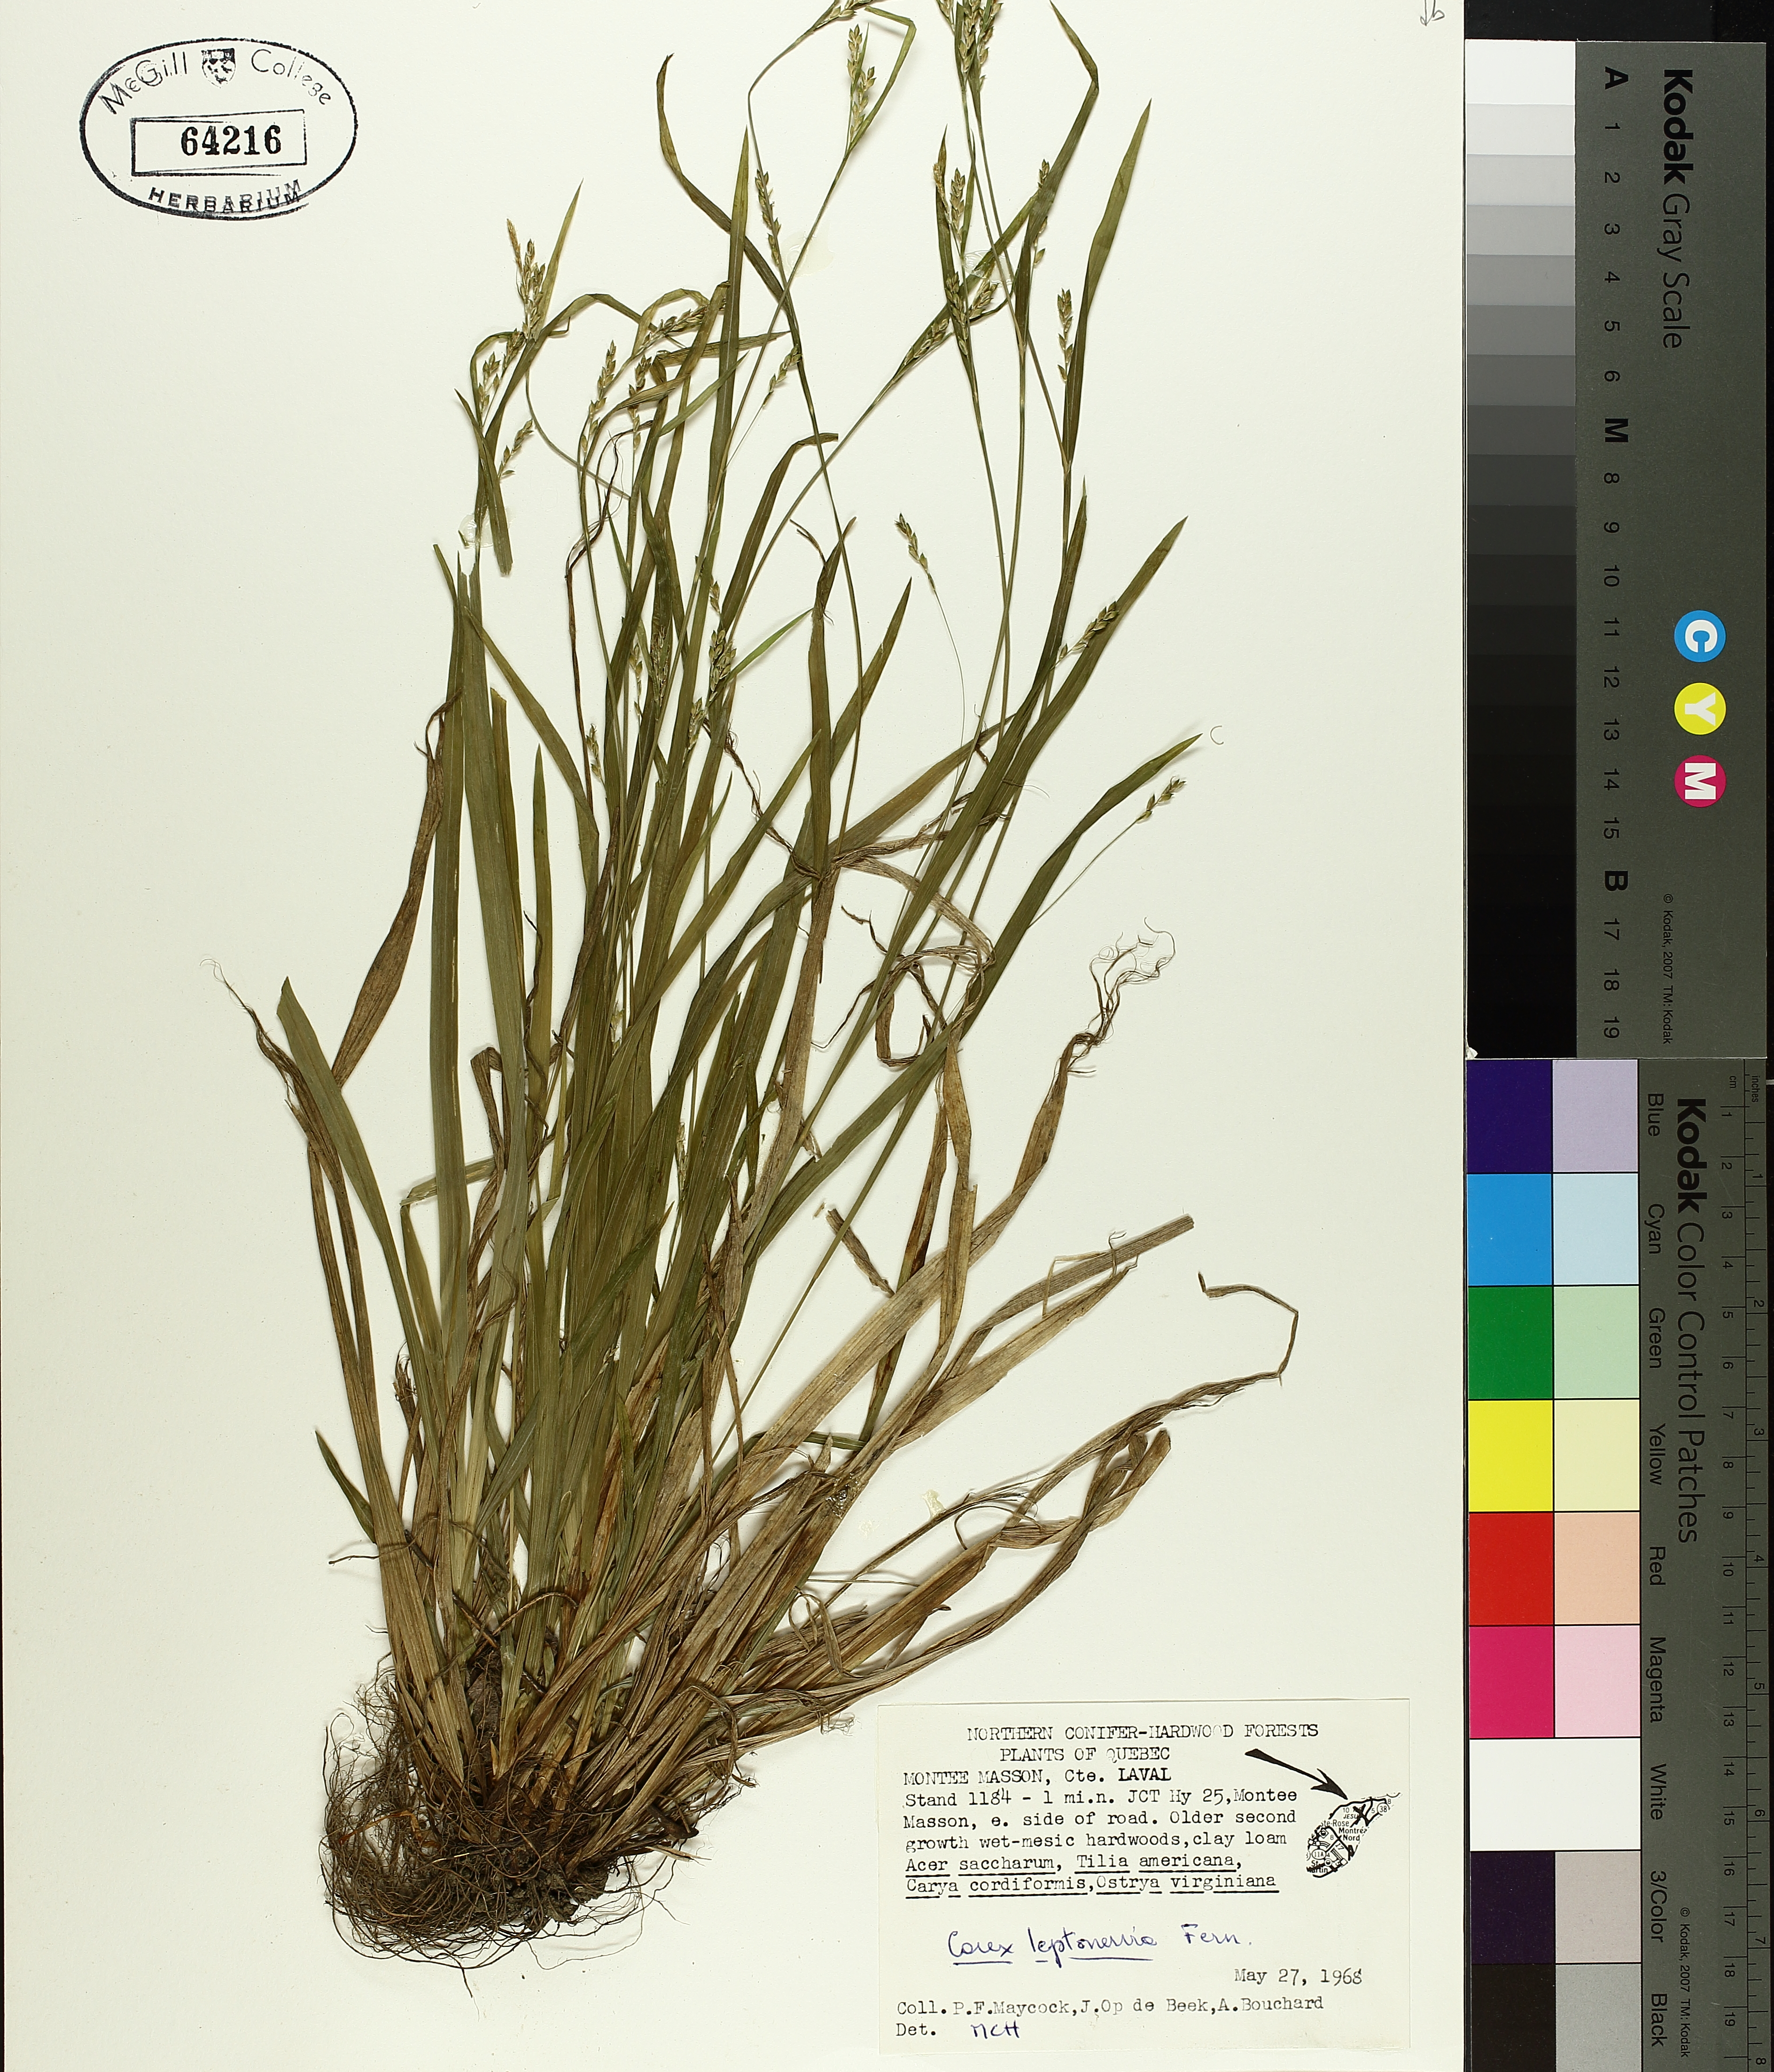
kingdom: Plantae
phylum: Tracheophyta
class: Liliopsida
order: Poales
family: Cyperaceae
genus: Carex
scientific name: Carex leptonervia
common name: Few-nerved wood sedge
